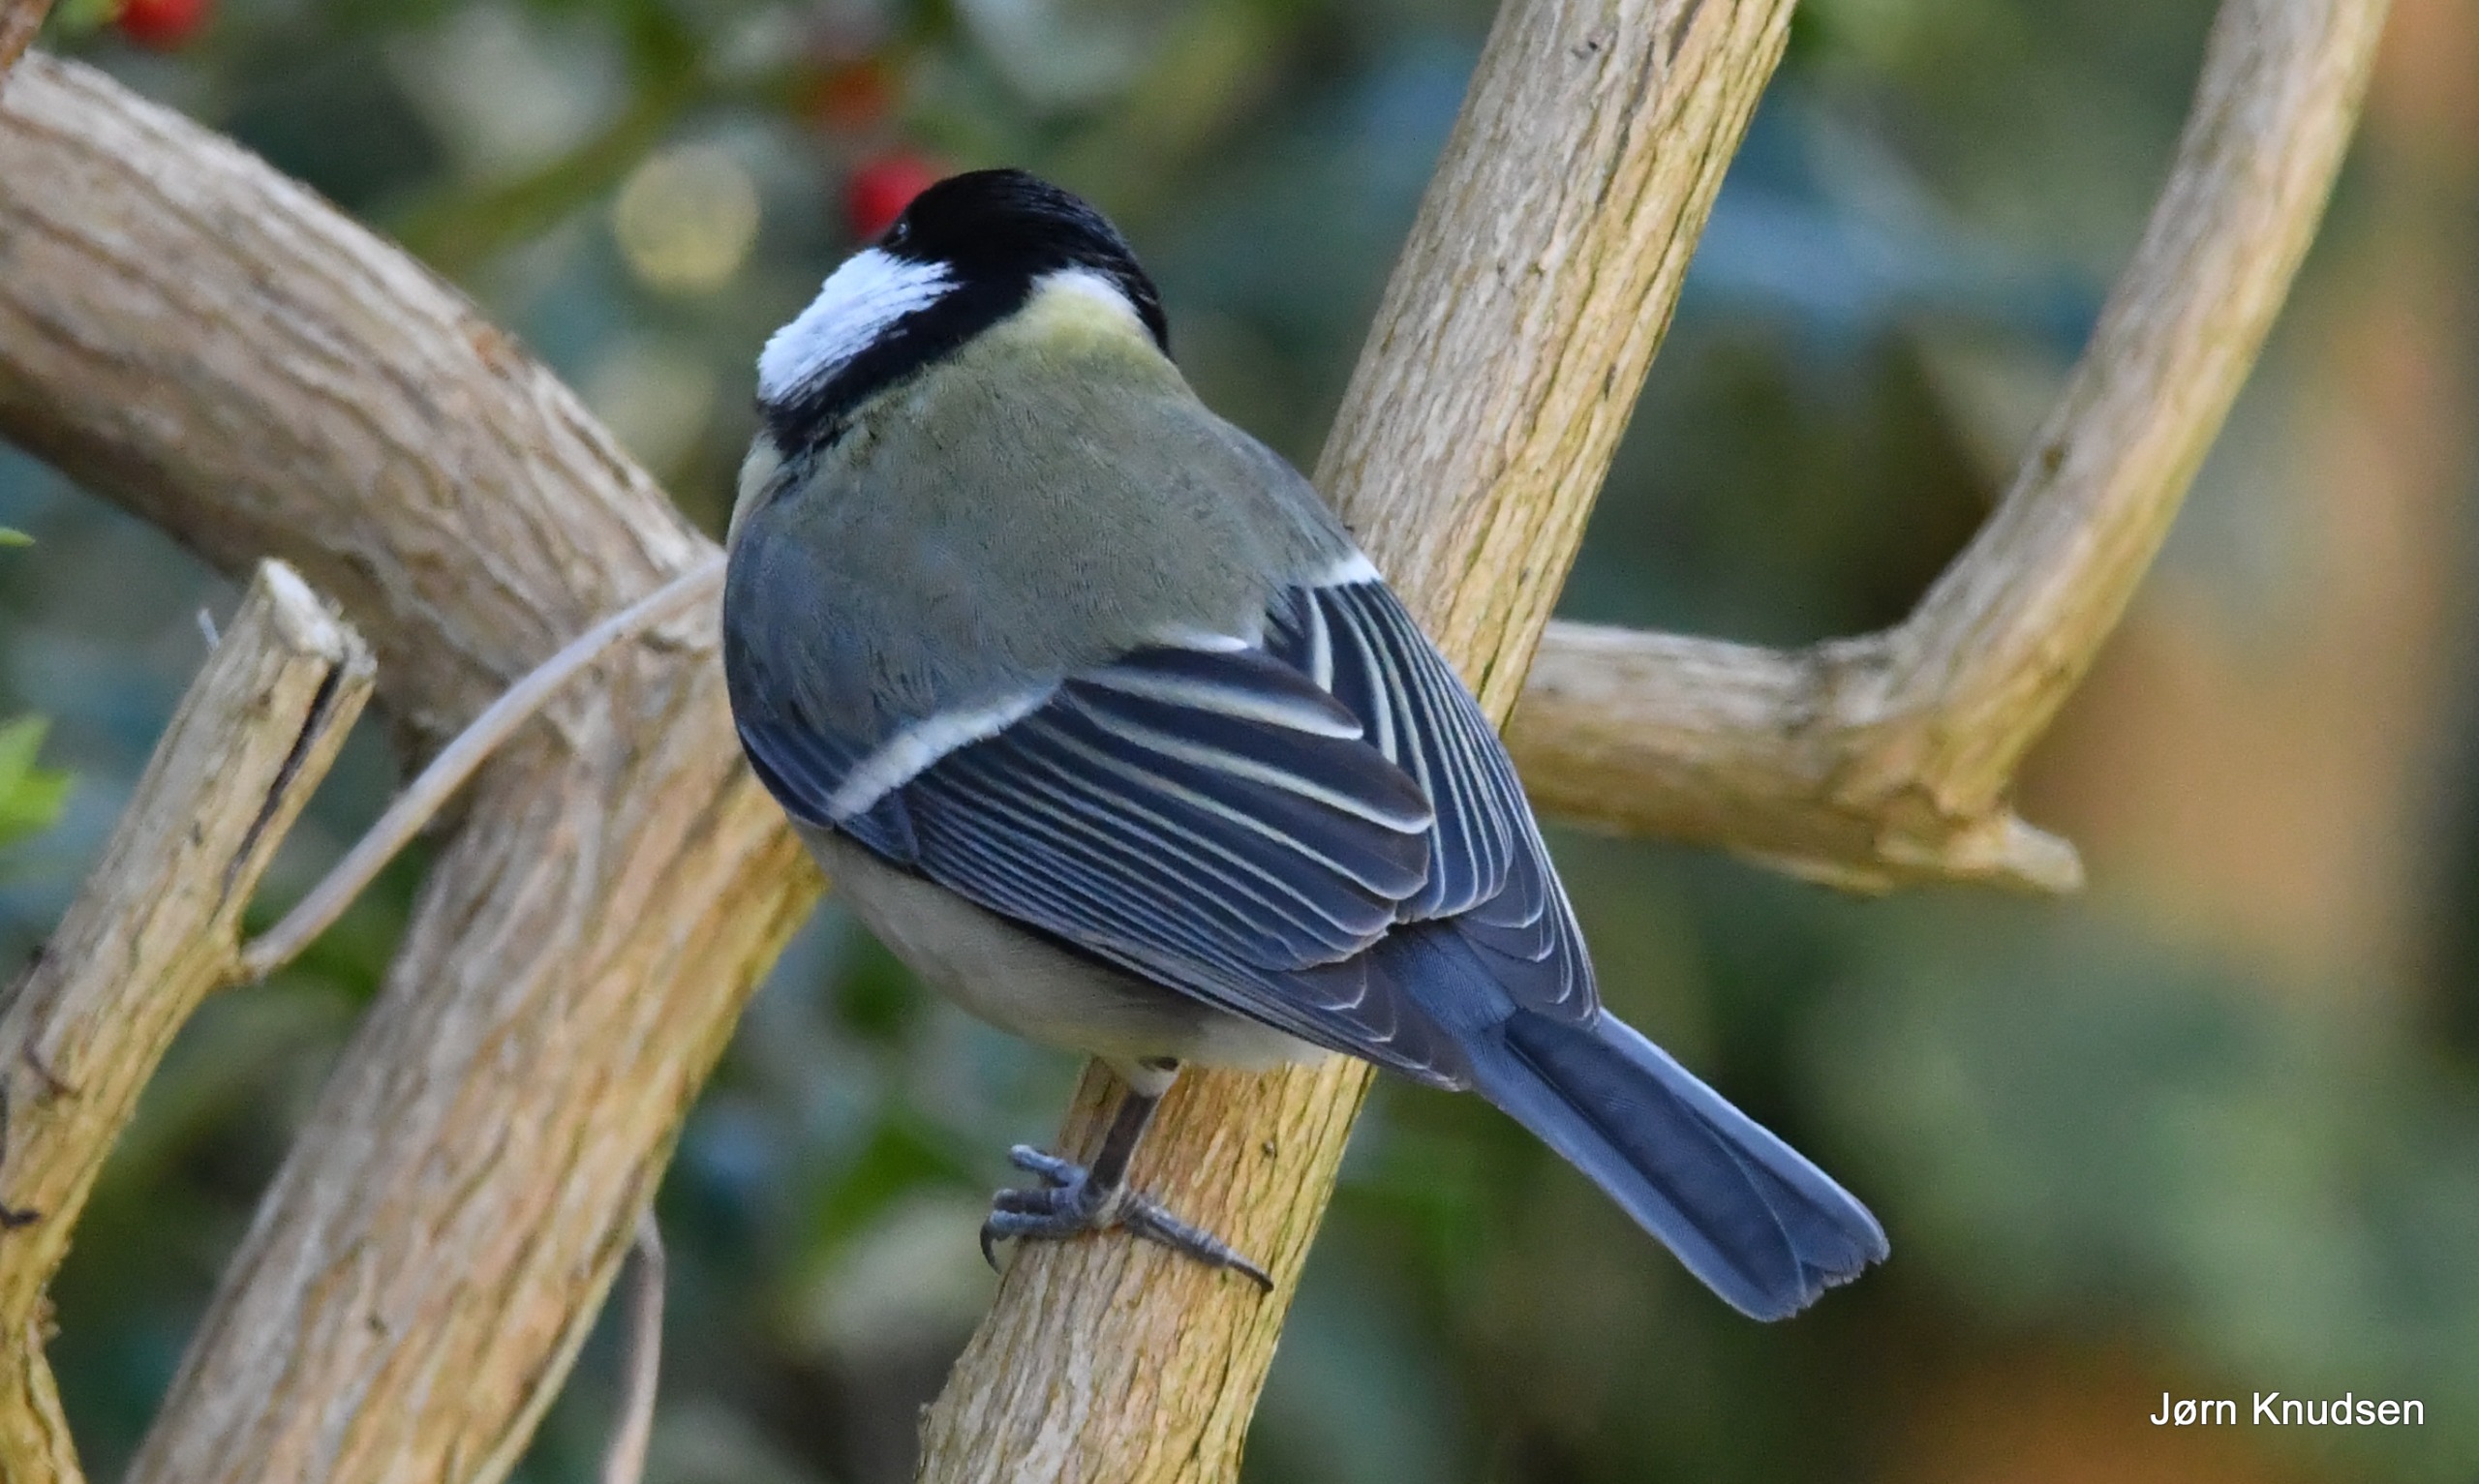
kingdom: Animalia
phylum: Chordata
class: Aves
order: Passeriformes
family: Paridae
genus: Parus
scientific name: Parus major
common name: Musvit
